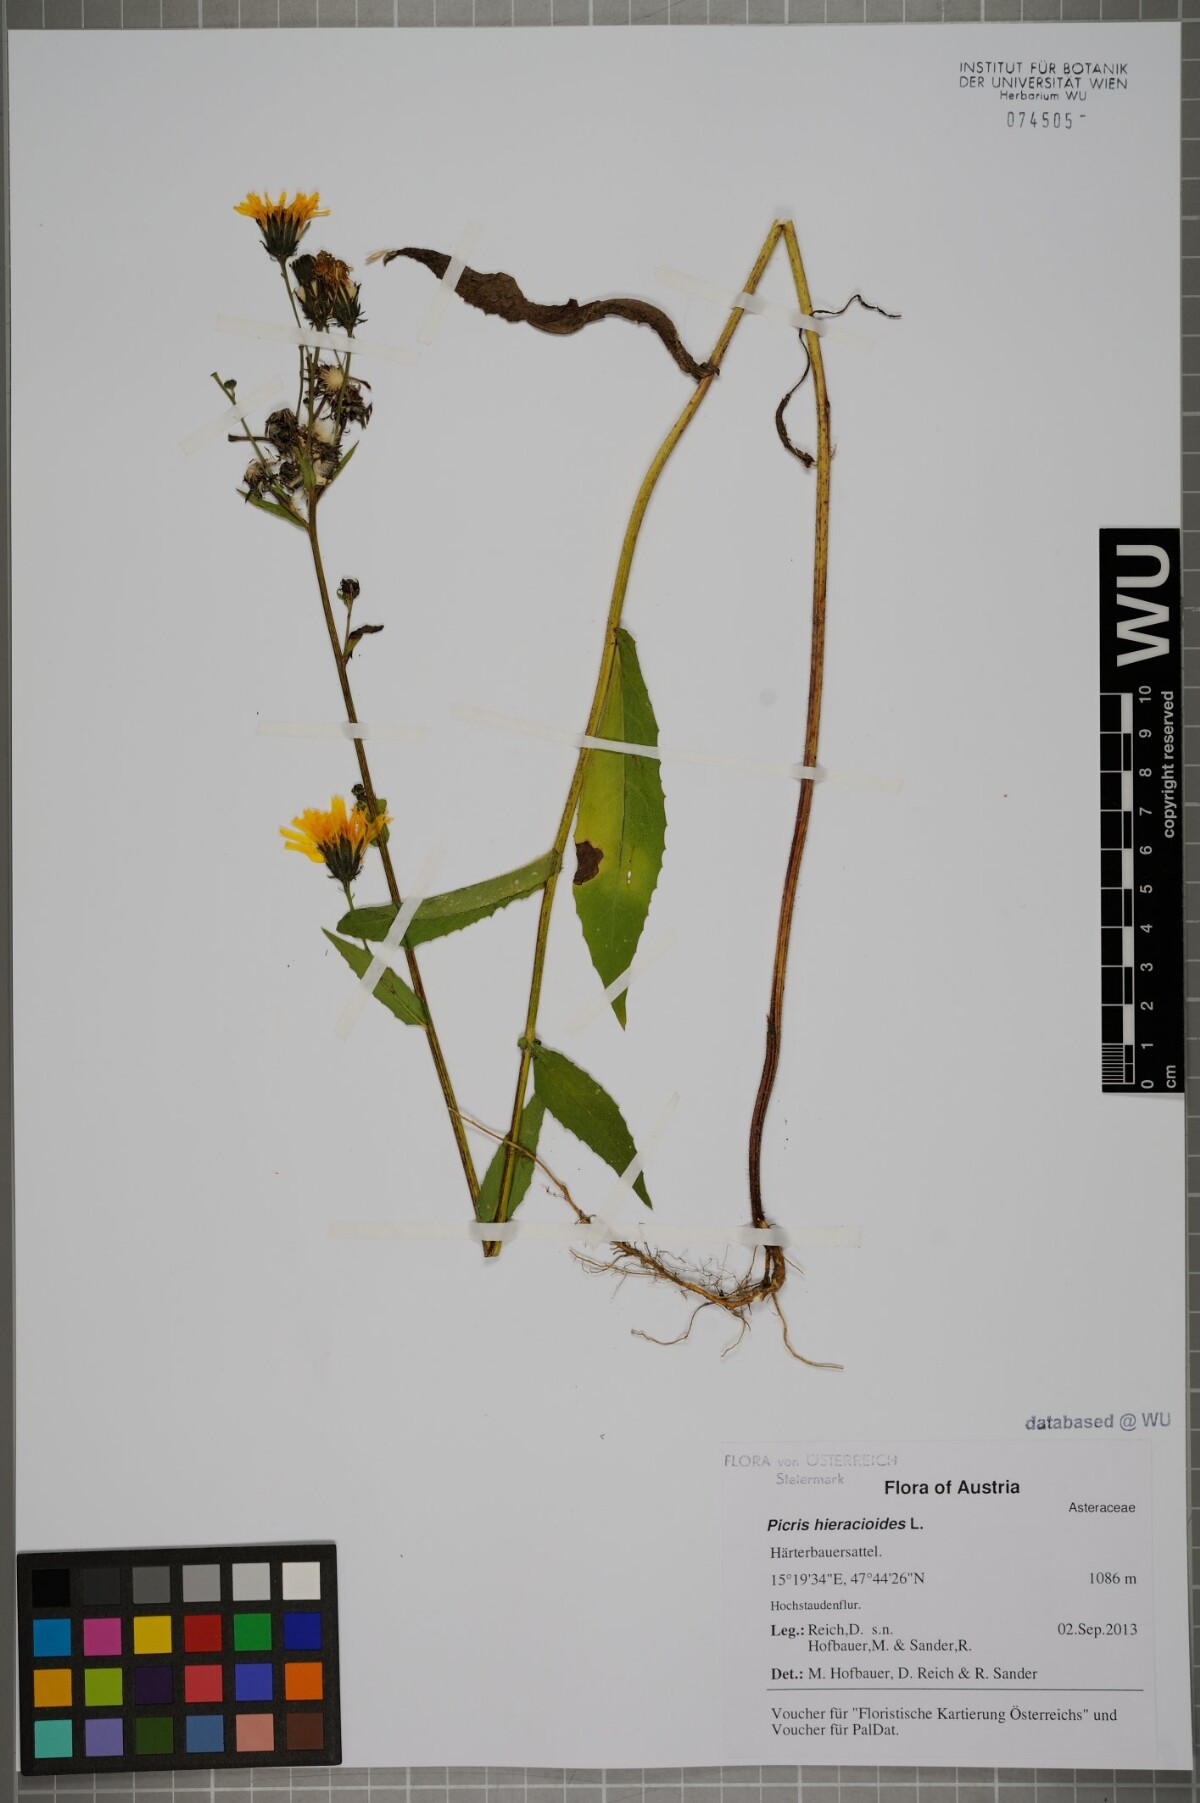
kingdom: Plantae
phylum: Tracheophyta
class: Magnoliopsida
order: Asterales
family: Asteraceae
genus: Picris
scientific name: Picris hieracioides
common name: Hawkweed oxtongue
